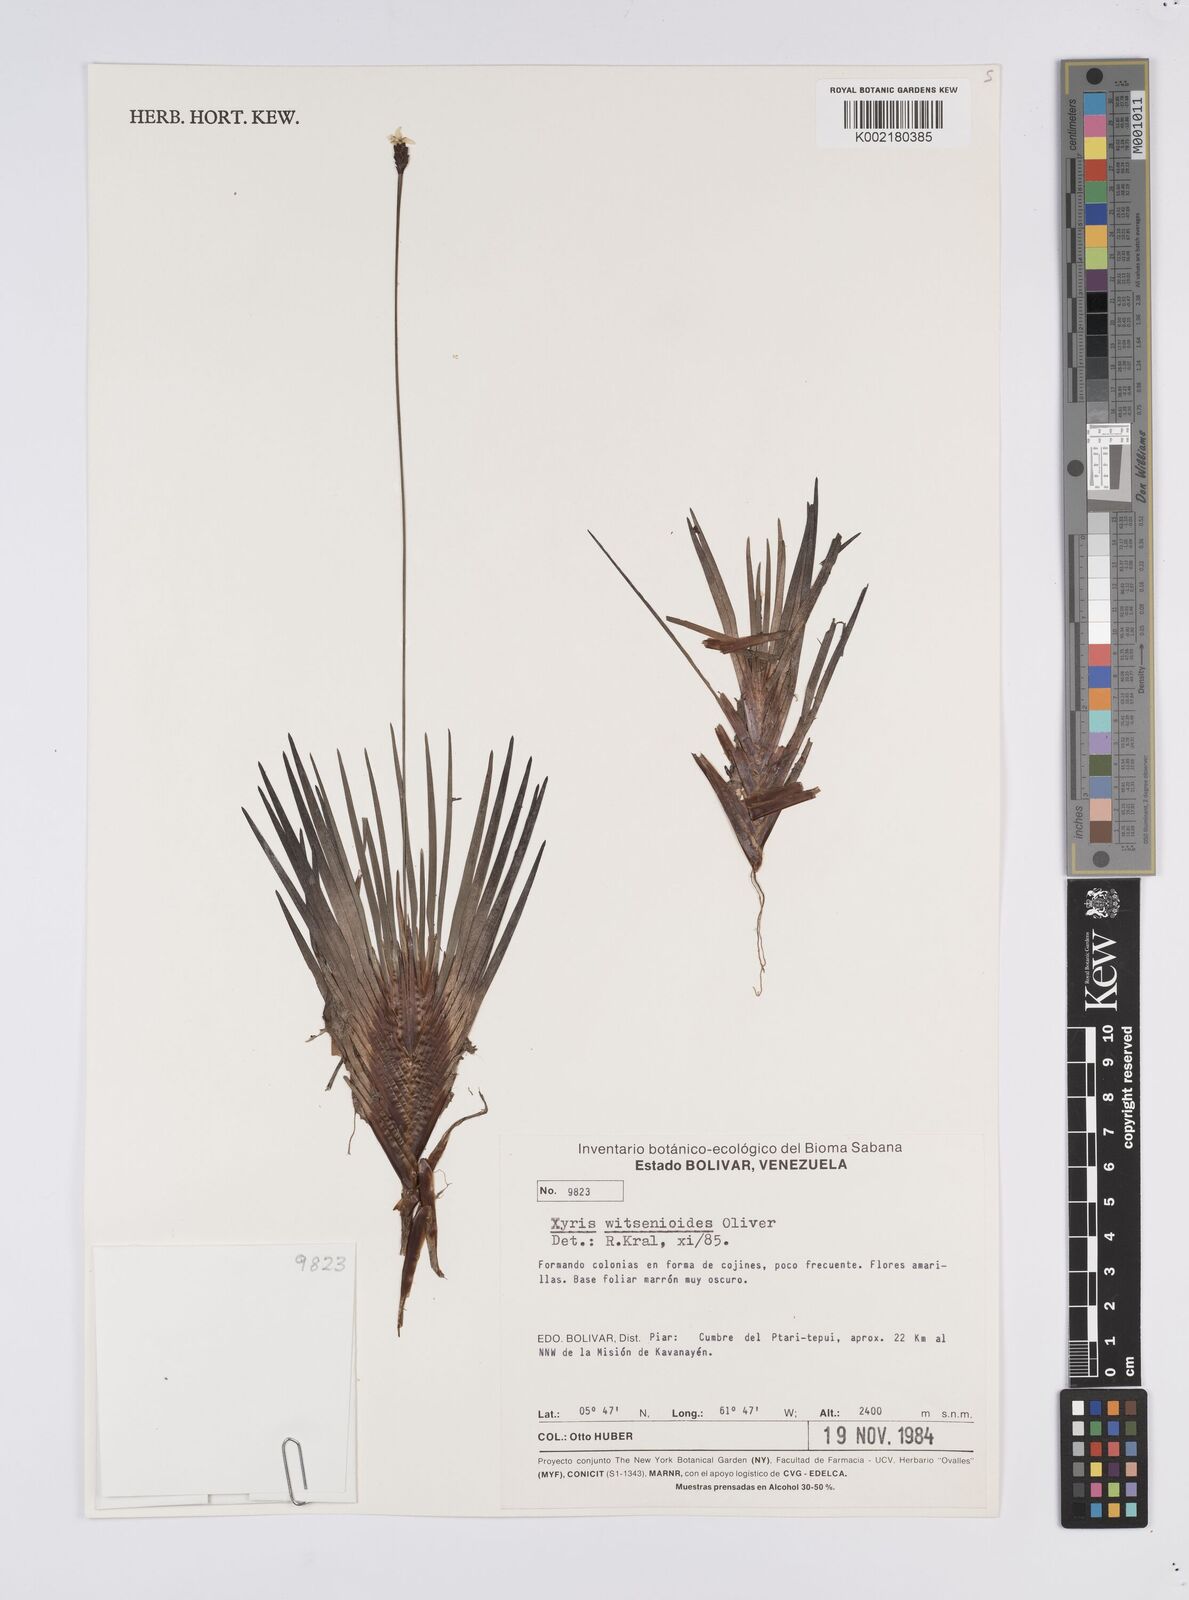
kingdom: Plantae
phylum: Tracheophyta
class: Liliopsida
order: Poales
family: Xyridaceae
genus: Xyris
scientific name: Xyris witsenioides
